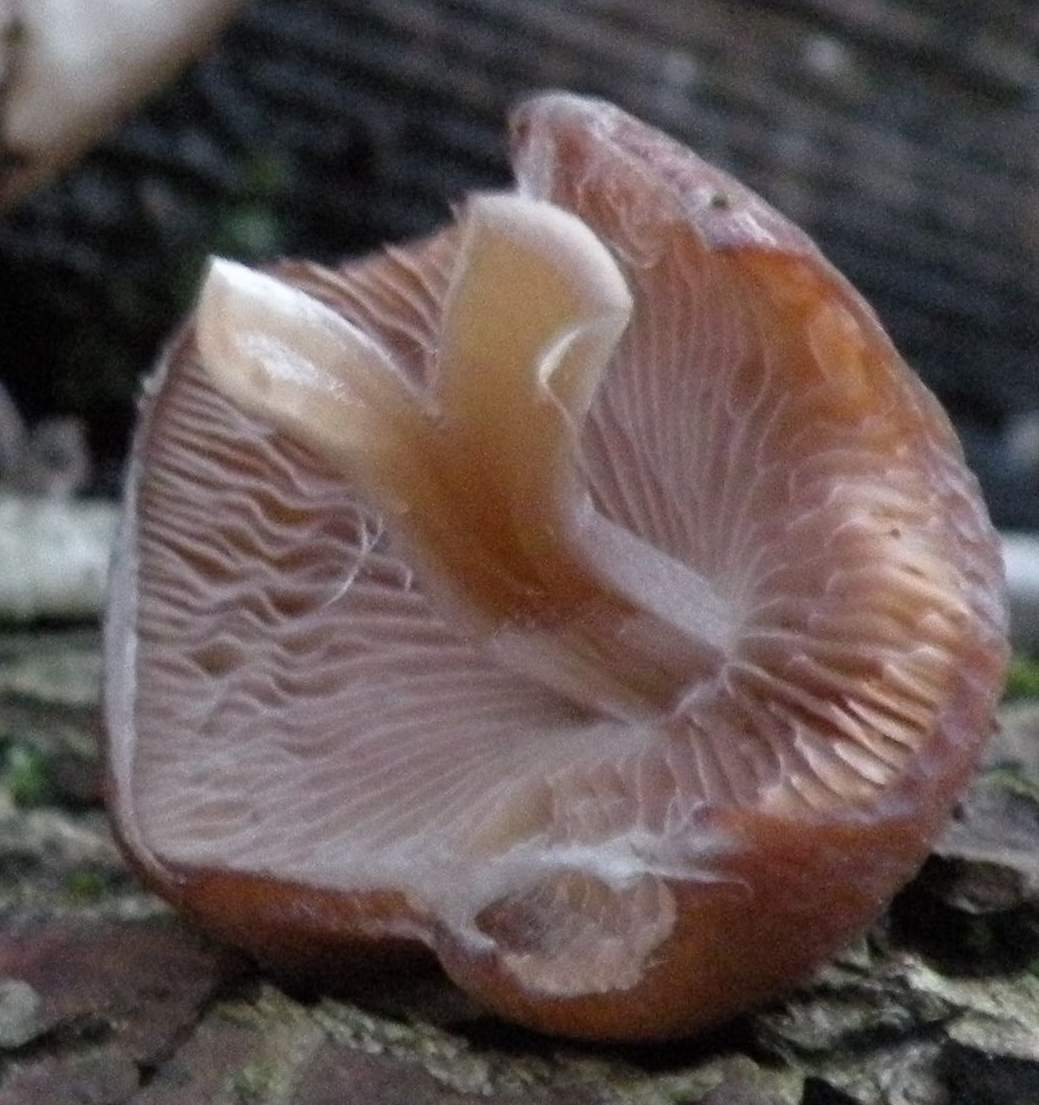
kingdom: Fungi
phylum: Basidiomycota
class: Agaricomycetes
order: Agaricales
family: Psathyrellaceae
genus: Psathyrella
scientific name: Psathyrella piluliformis
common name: lysstokket mørkhat
